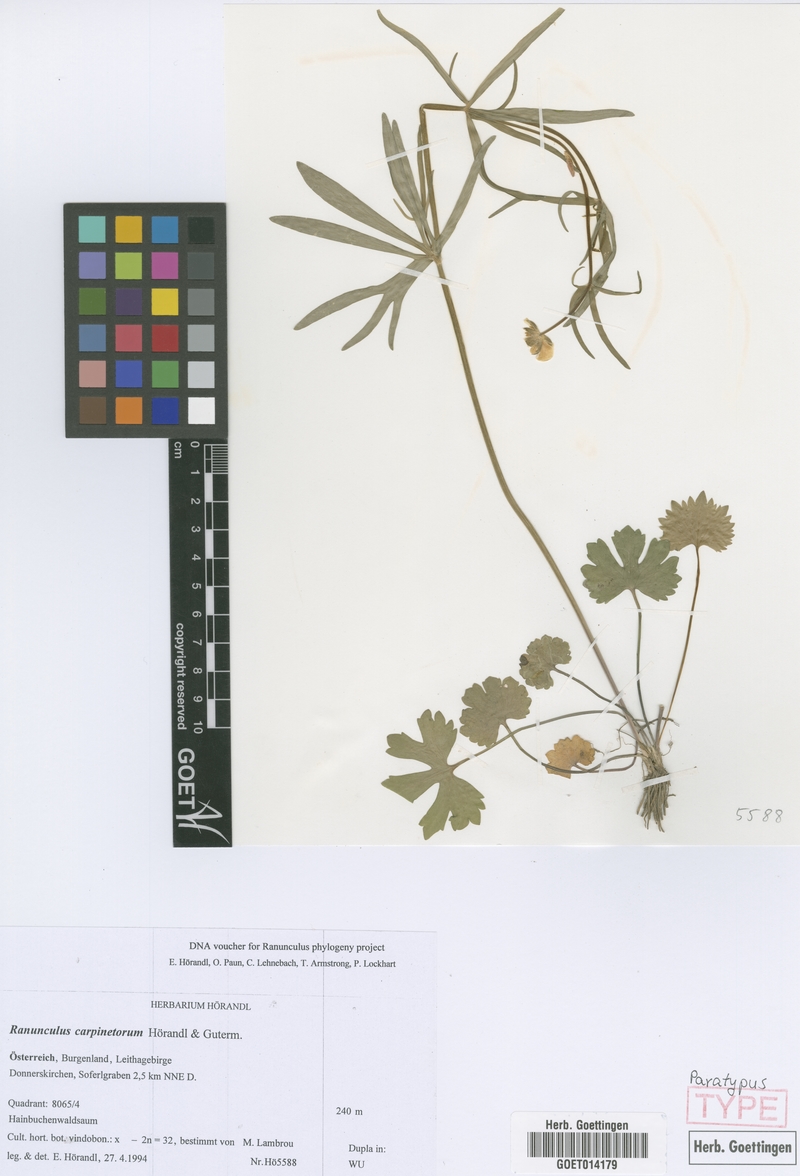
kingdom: Plantae
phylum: Tracheophyta
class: Magnoliopsida
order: Ranunculales
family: Ranunculaceae
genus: Ranunculus
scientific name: Ranunculus carpinetorum
